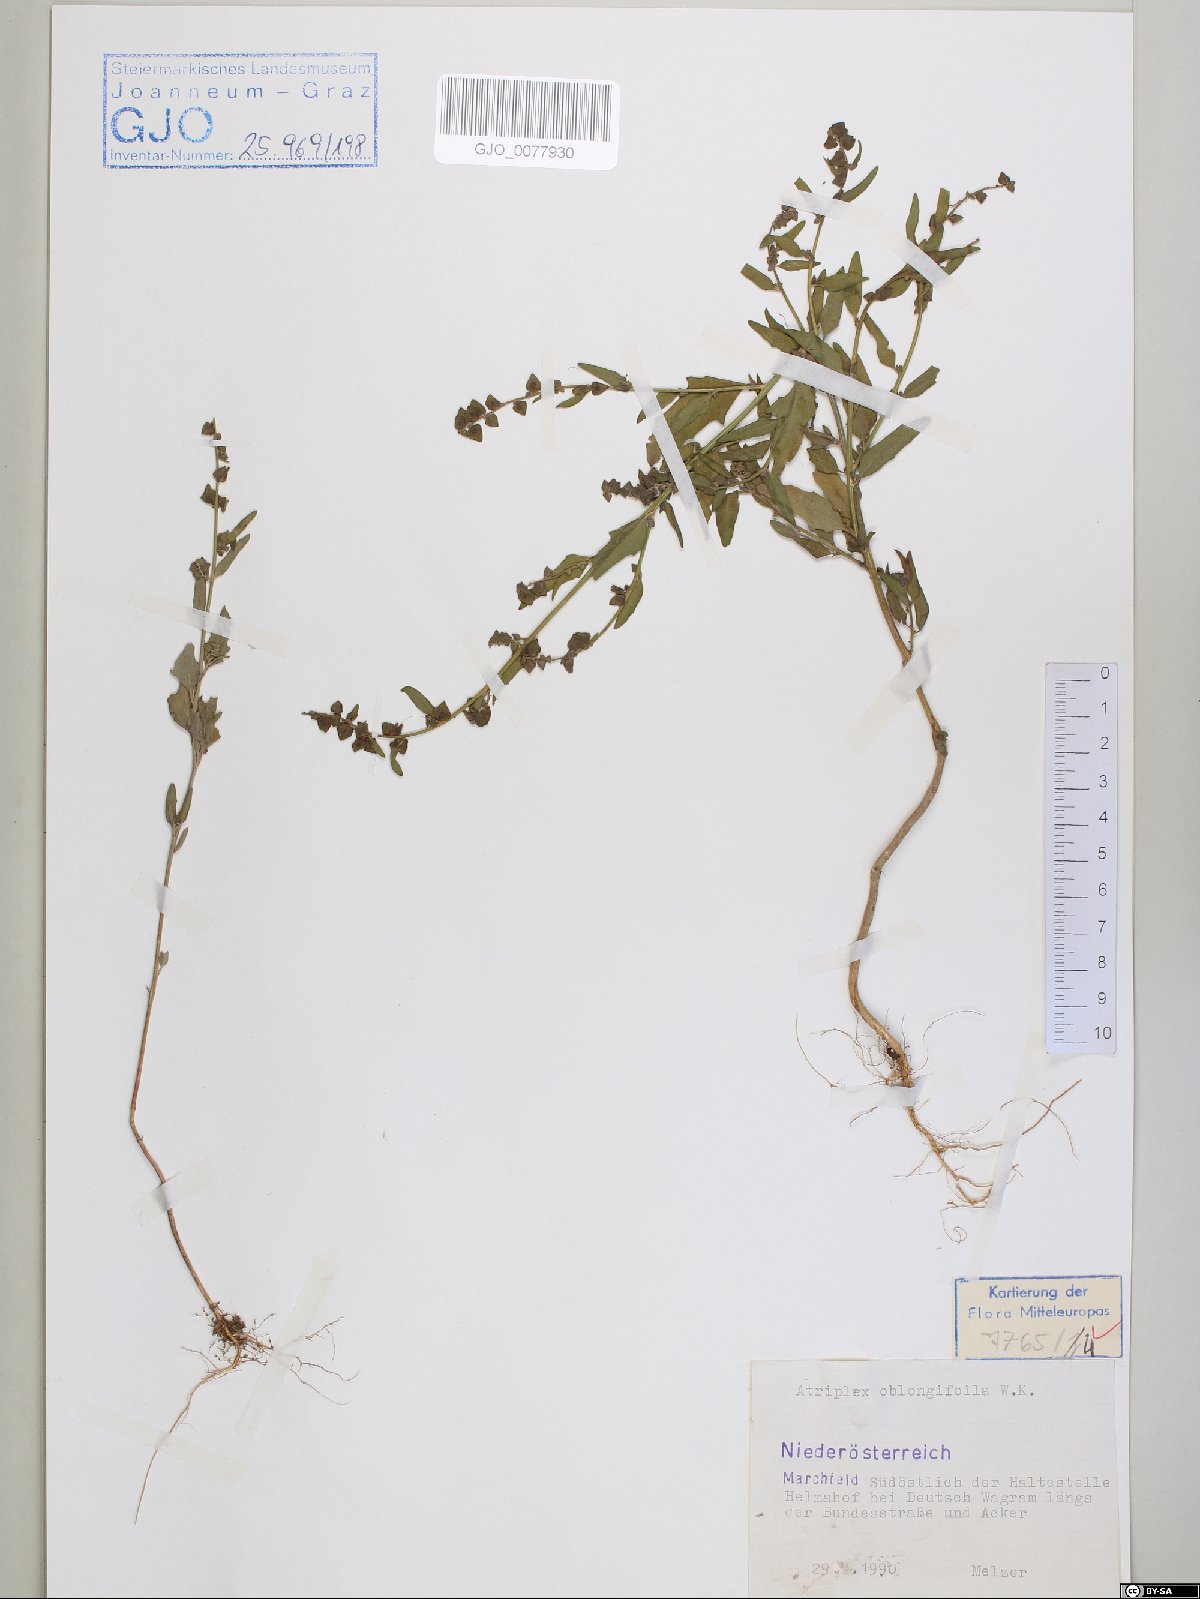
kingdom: Plantae
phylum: Tracheophyta
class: Magnoliopsida
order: Caryophyllales
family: Amaranthaceae
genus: Atriplex
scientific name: Atriplex oblongifolia
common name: Oblongleaf orache
